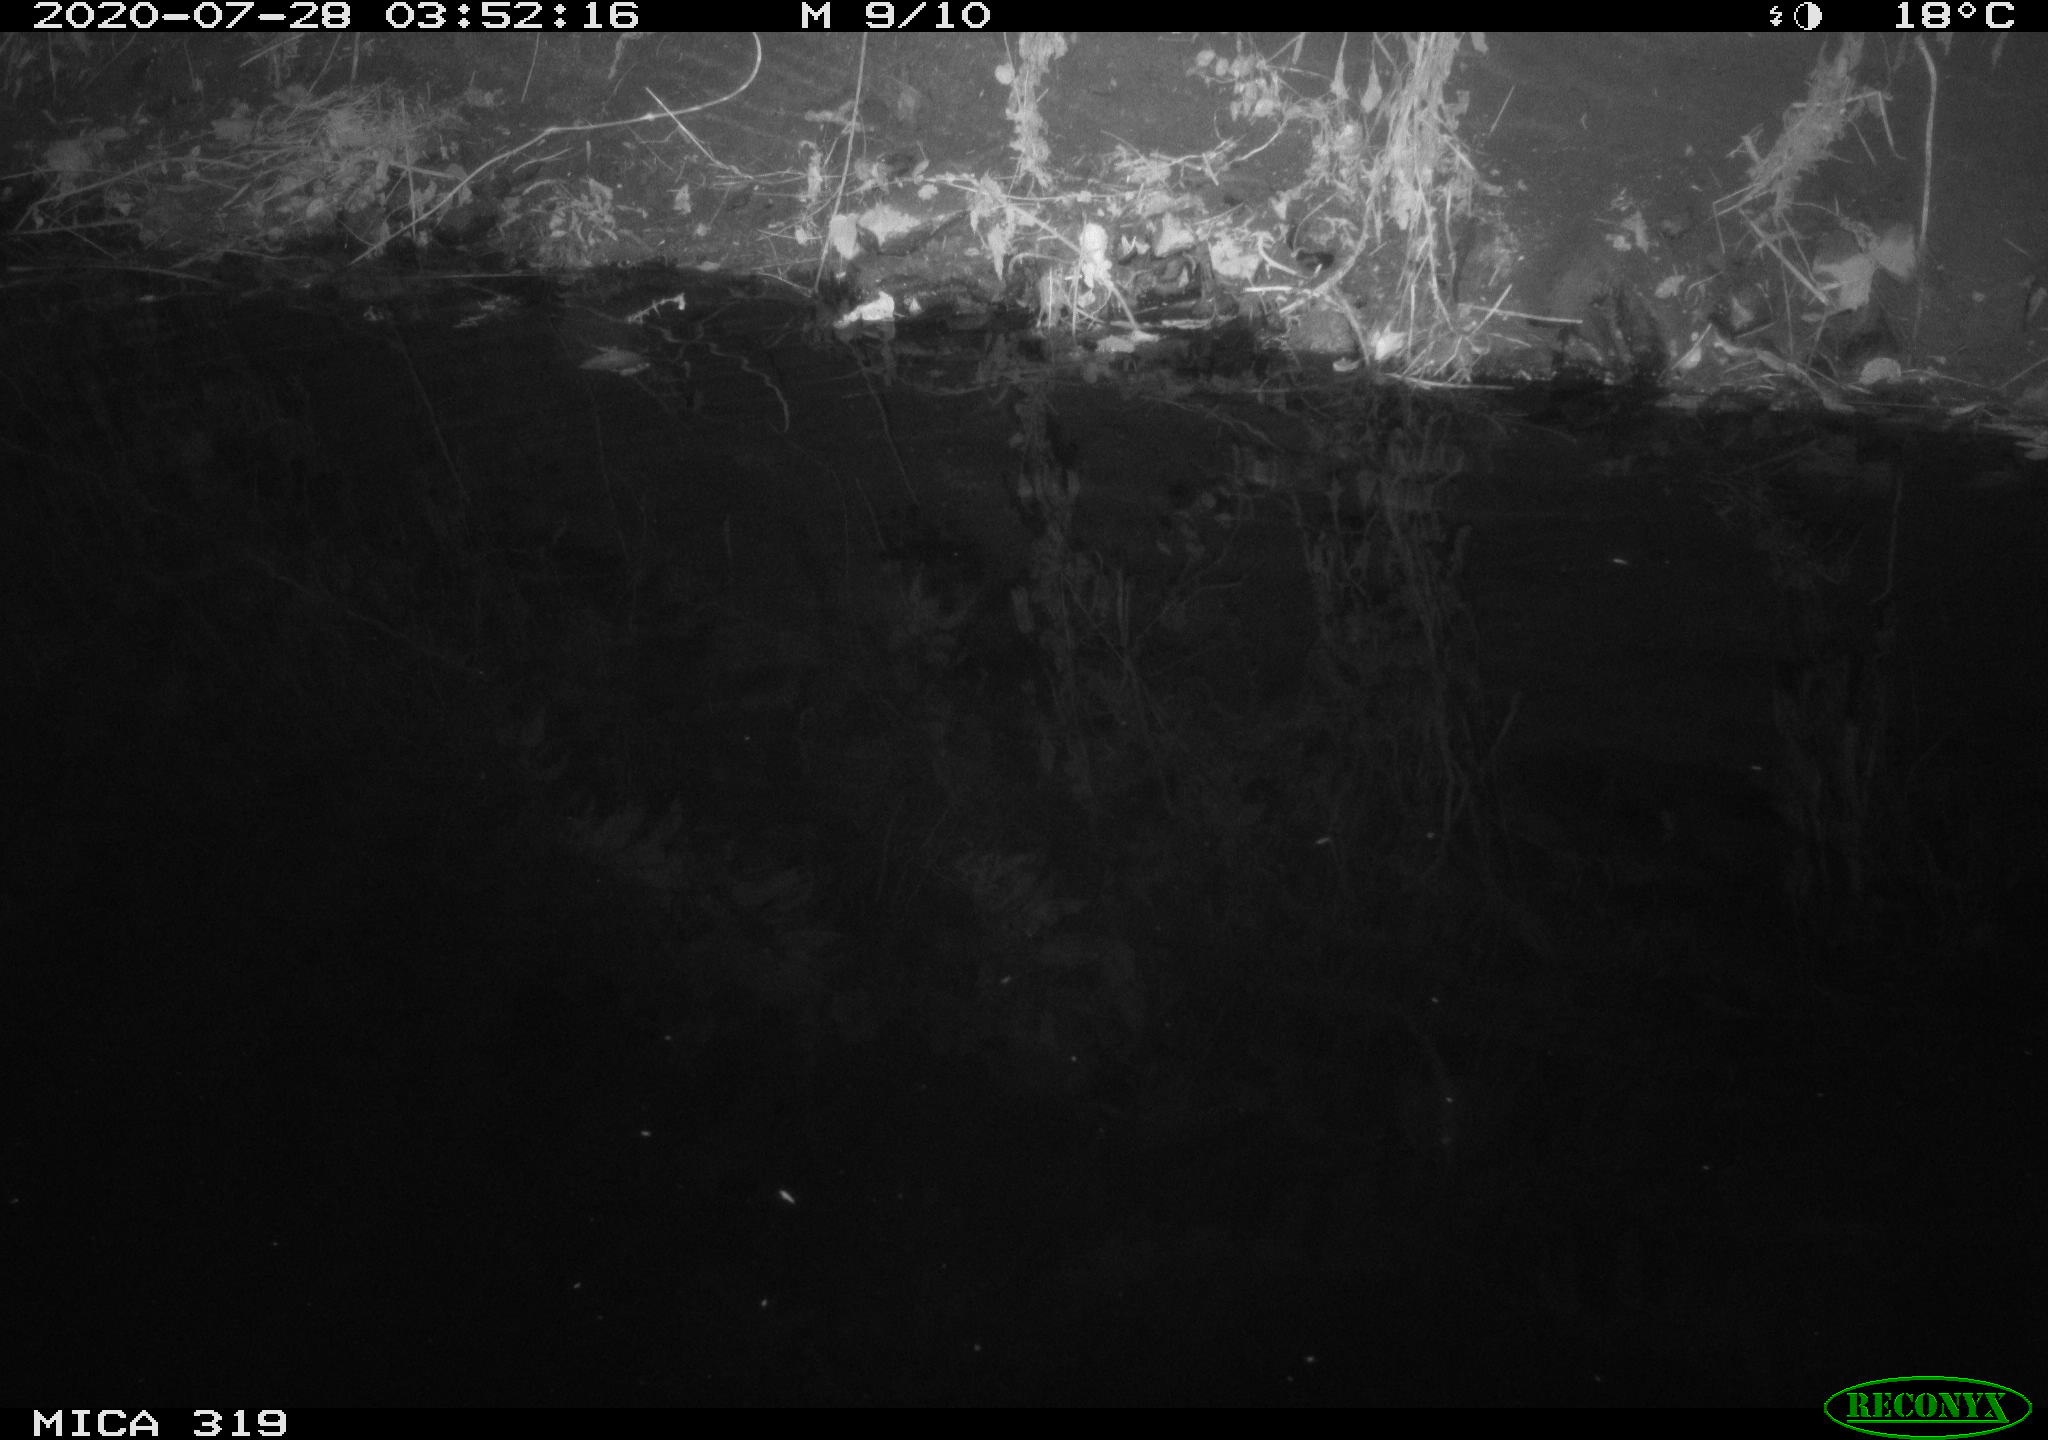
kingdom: Animalia
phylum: Chordata
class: Aves
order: Anseriformes
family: Anatidae
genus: Anas
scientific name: Anas platyrhynchos
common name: Mallard
